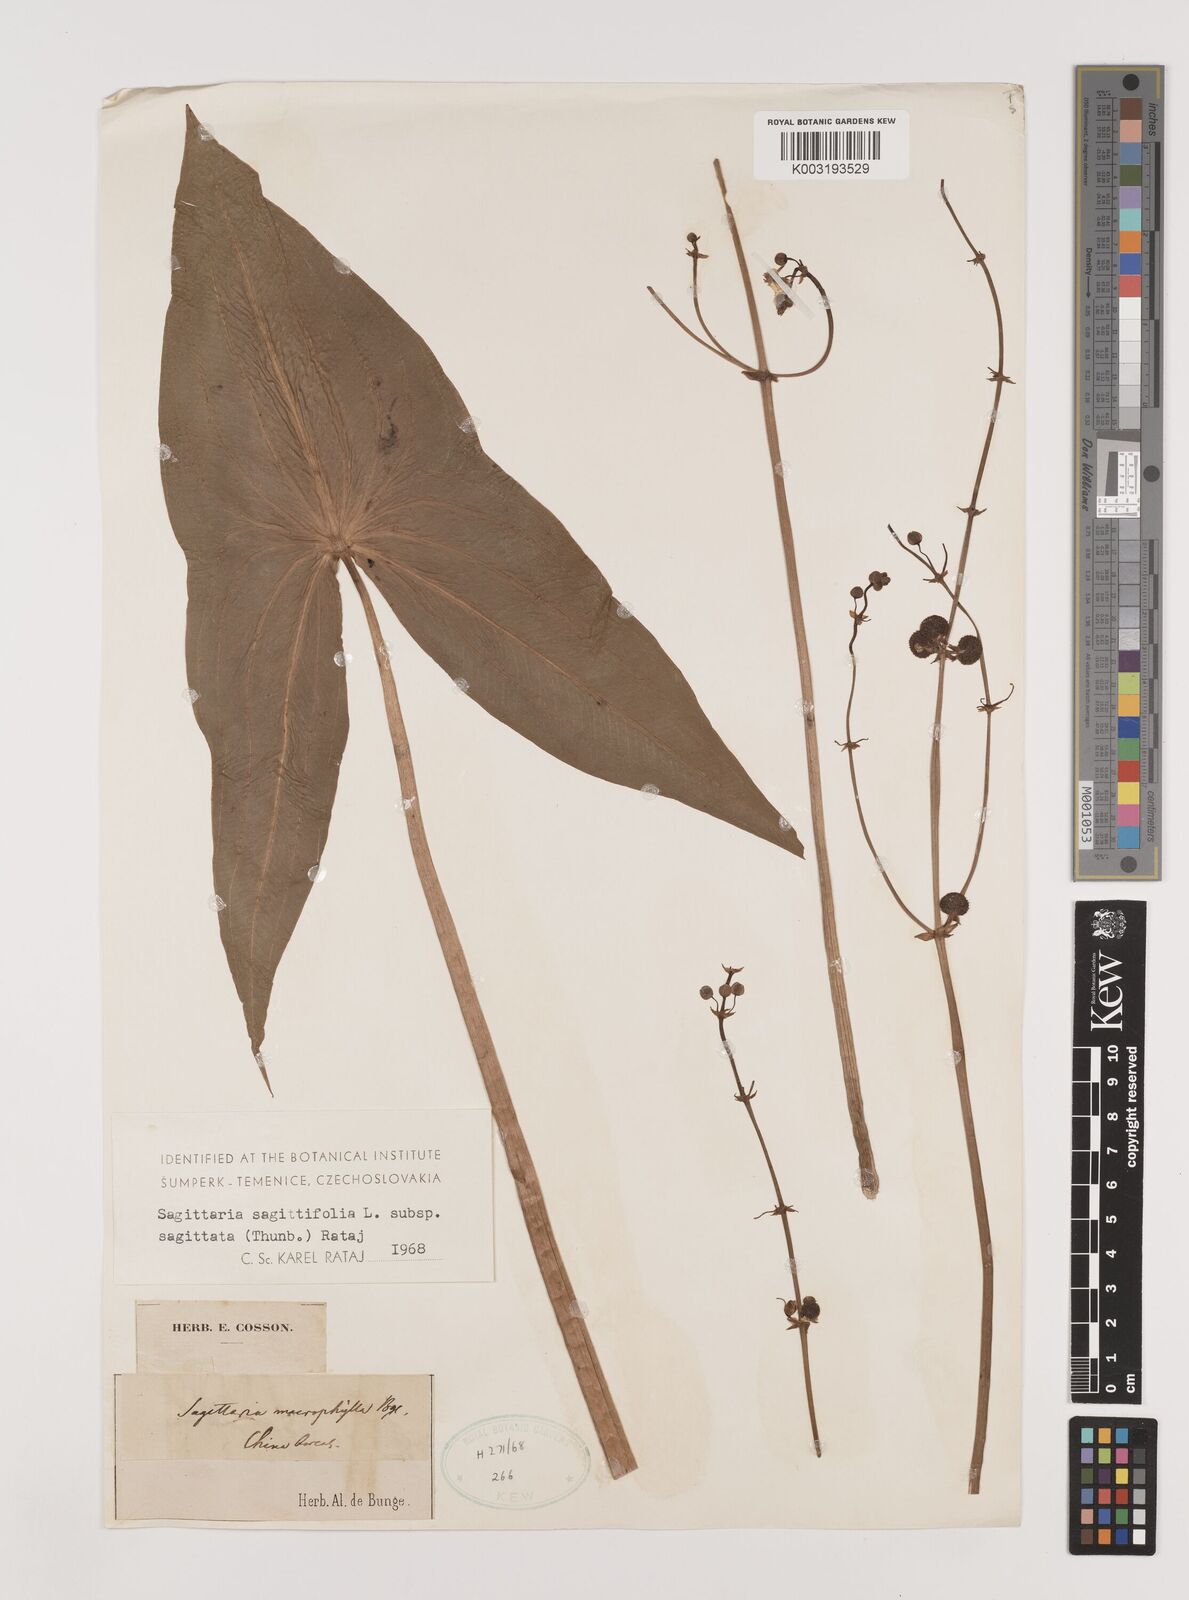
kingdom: Plantae
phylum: Tracheophyta
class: Liliopsida
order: Alismatales
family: Alismataceae
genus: Sagittaria
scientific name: Sagittaria sagittifolia
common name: Arrowhead
